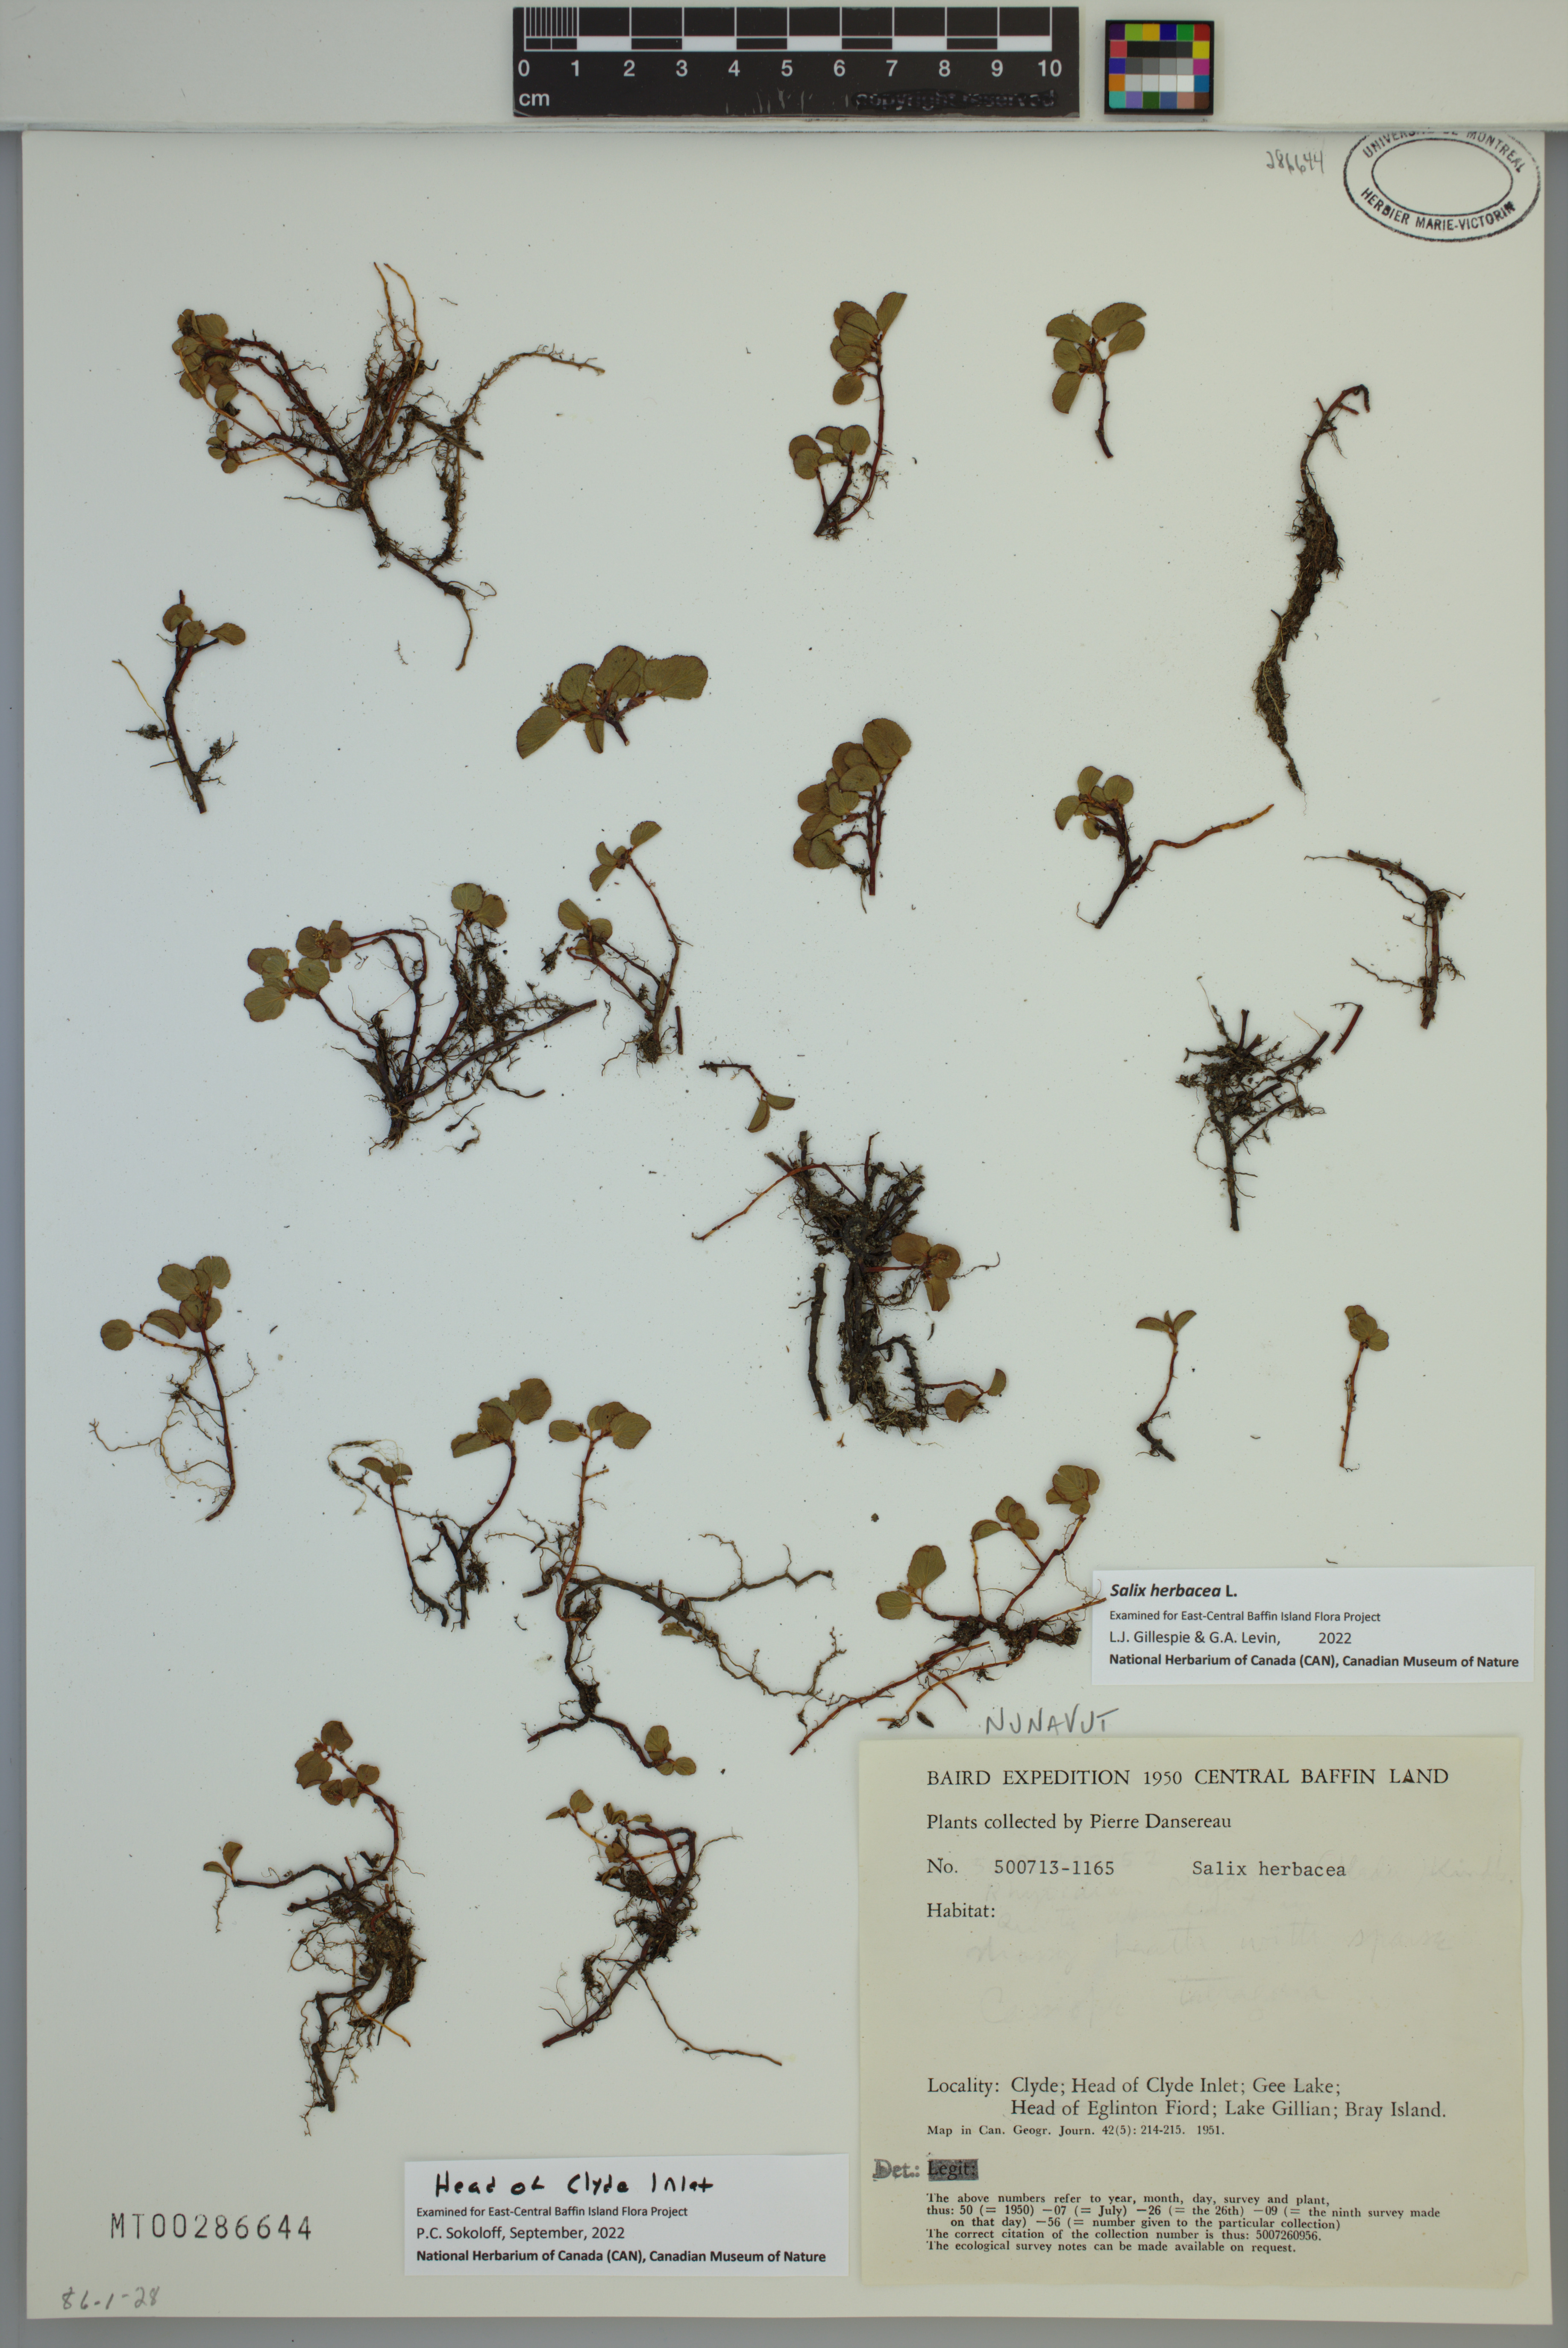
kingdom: Plantae
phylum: Tracheophyta
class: Magnoliopsida
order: Malpighiales
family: Salicaceae
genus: Salix
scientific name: Salix herbacea
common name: Dwarf willow
